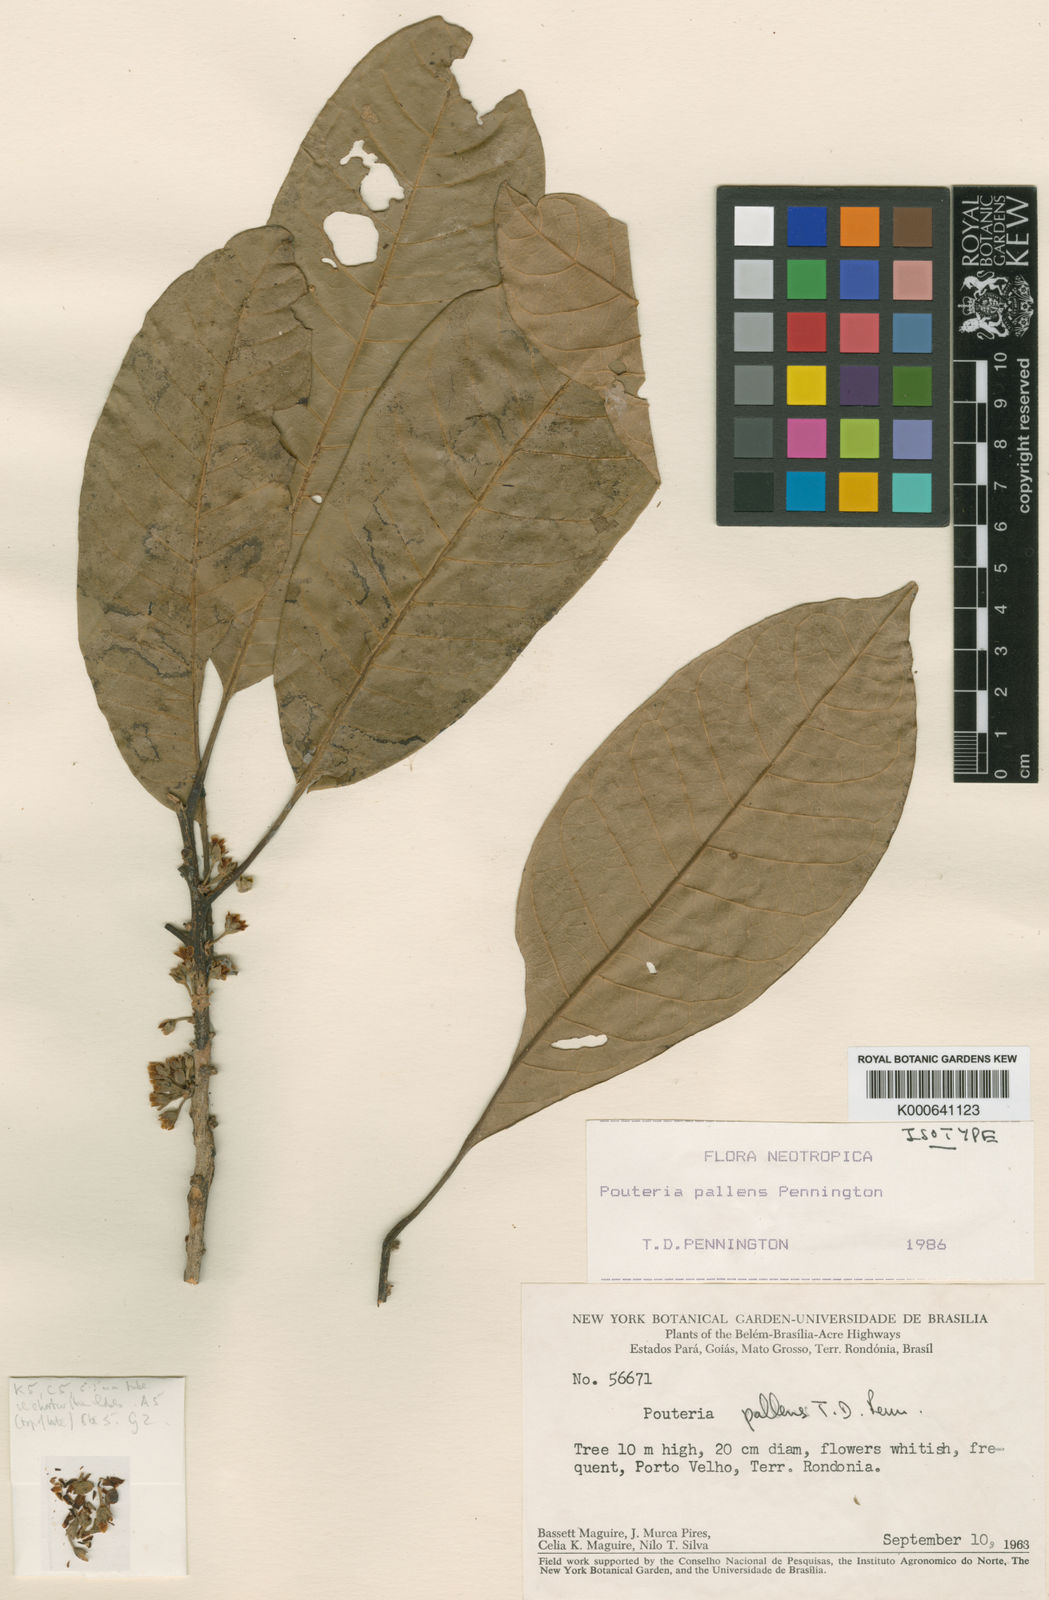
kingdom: Plantae
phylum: Tracheophyta
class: Magnoliopsida
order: Ericales
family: Sapotaceae
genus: Pouteria
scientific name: Pouteria pallens
